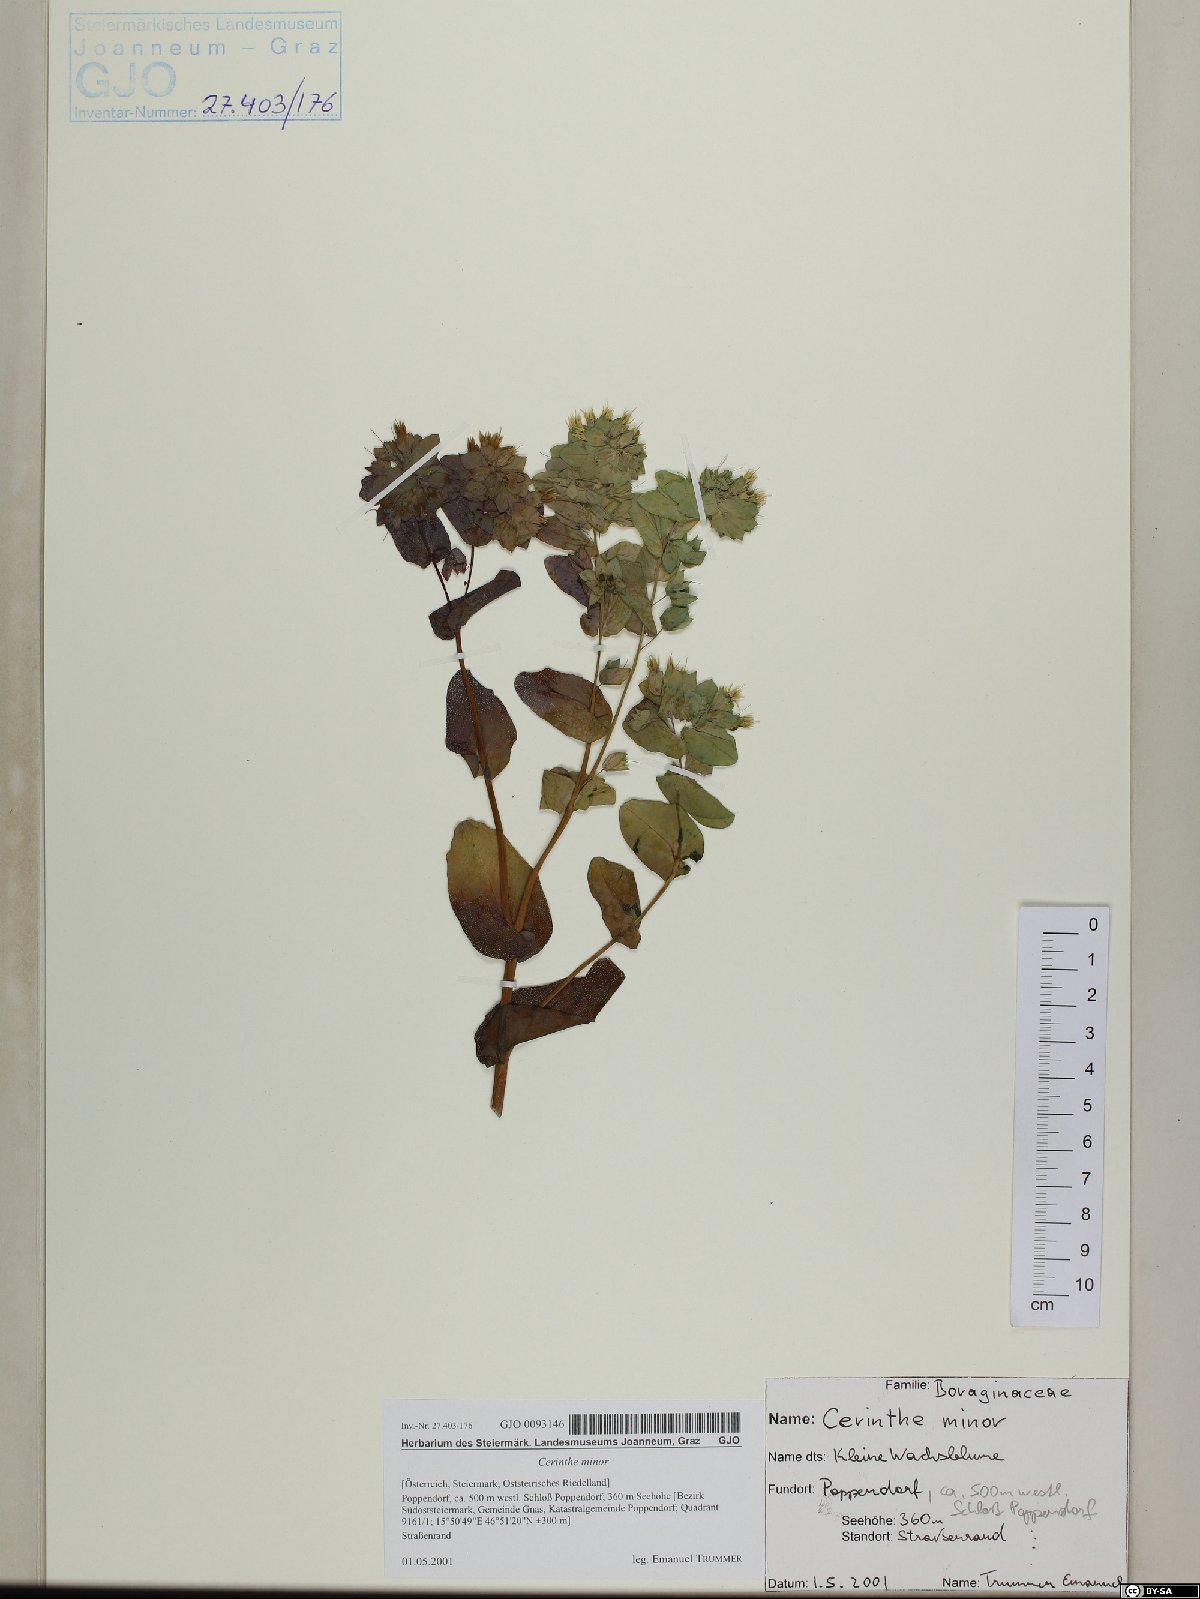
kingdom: Plantae
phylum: Tracheophyta
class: Magnoliopsida
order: Boraginales
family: Boraginaceae
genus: Cerinthe
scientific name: Cerinthe minor
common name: Lesser honeywort
